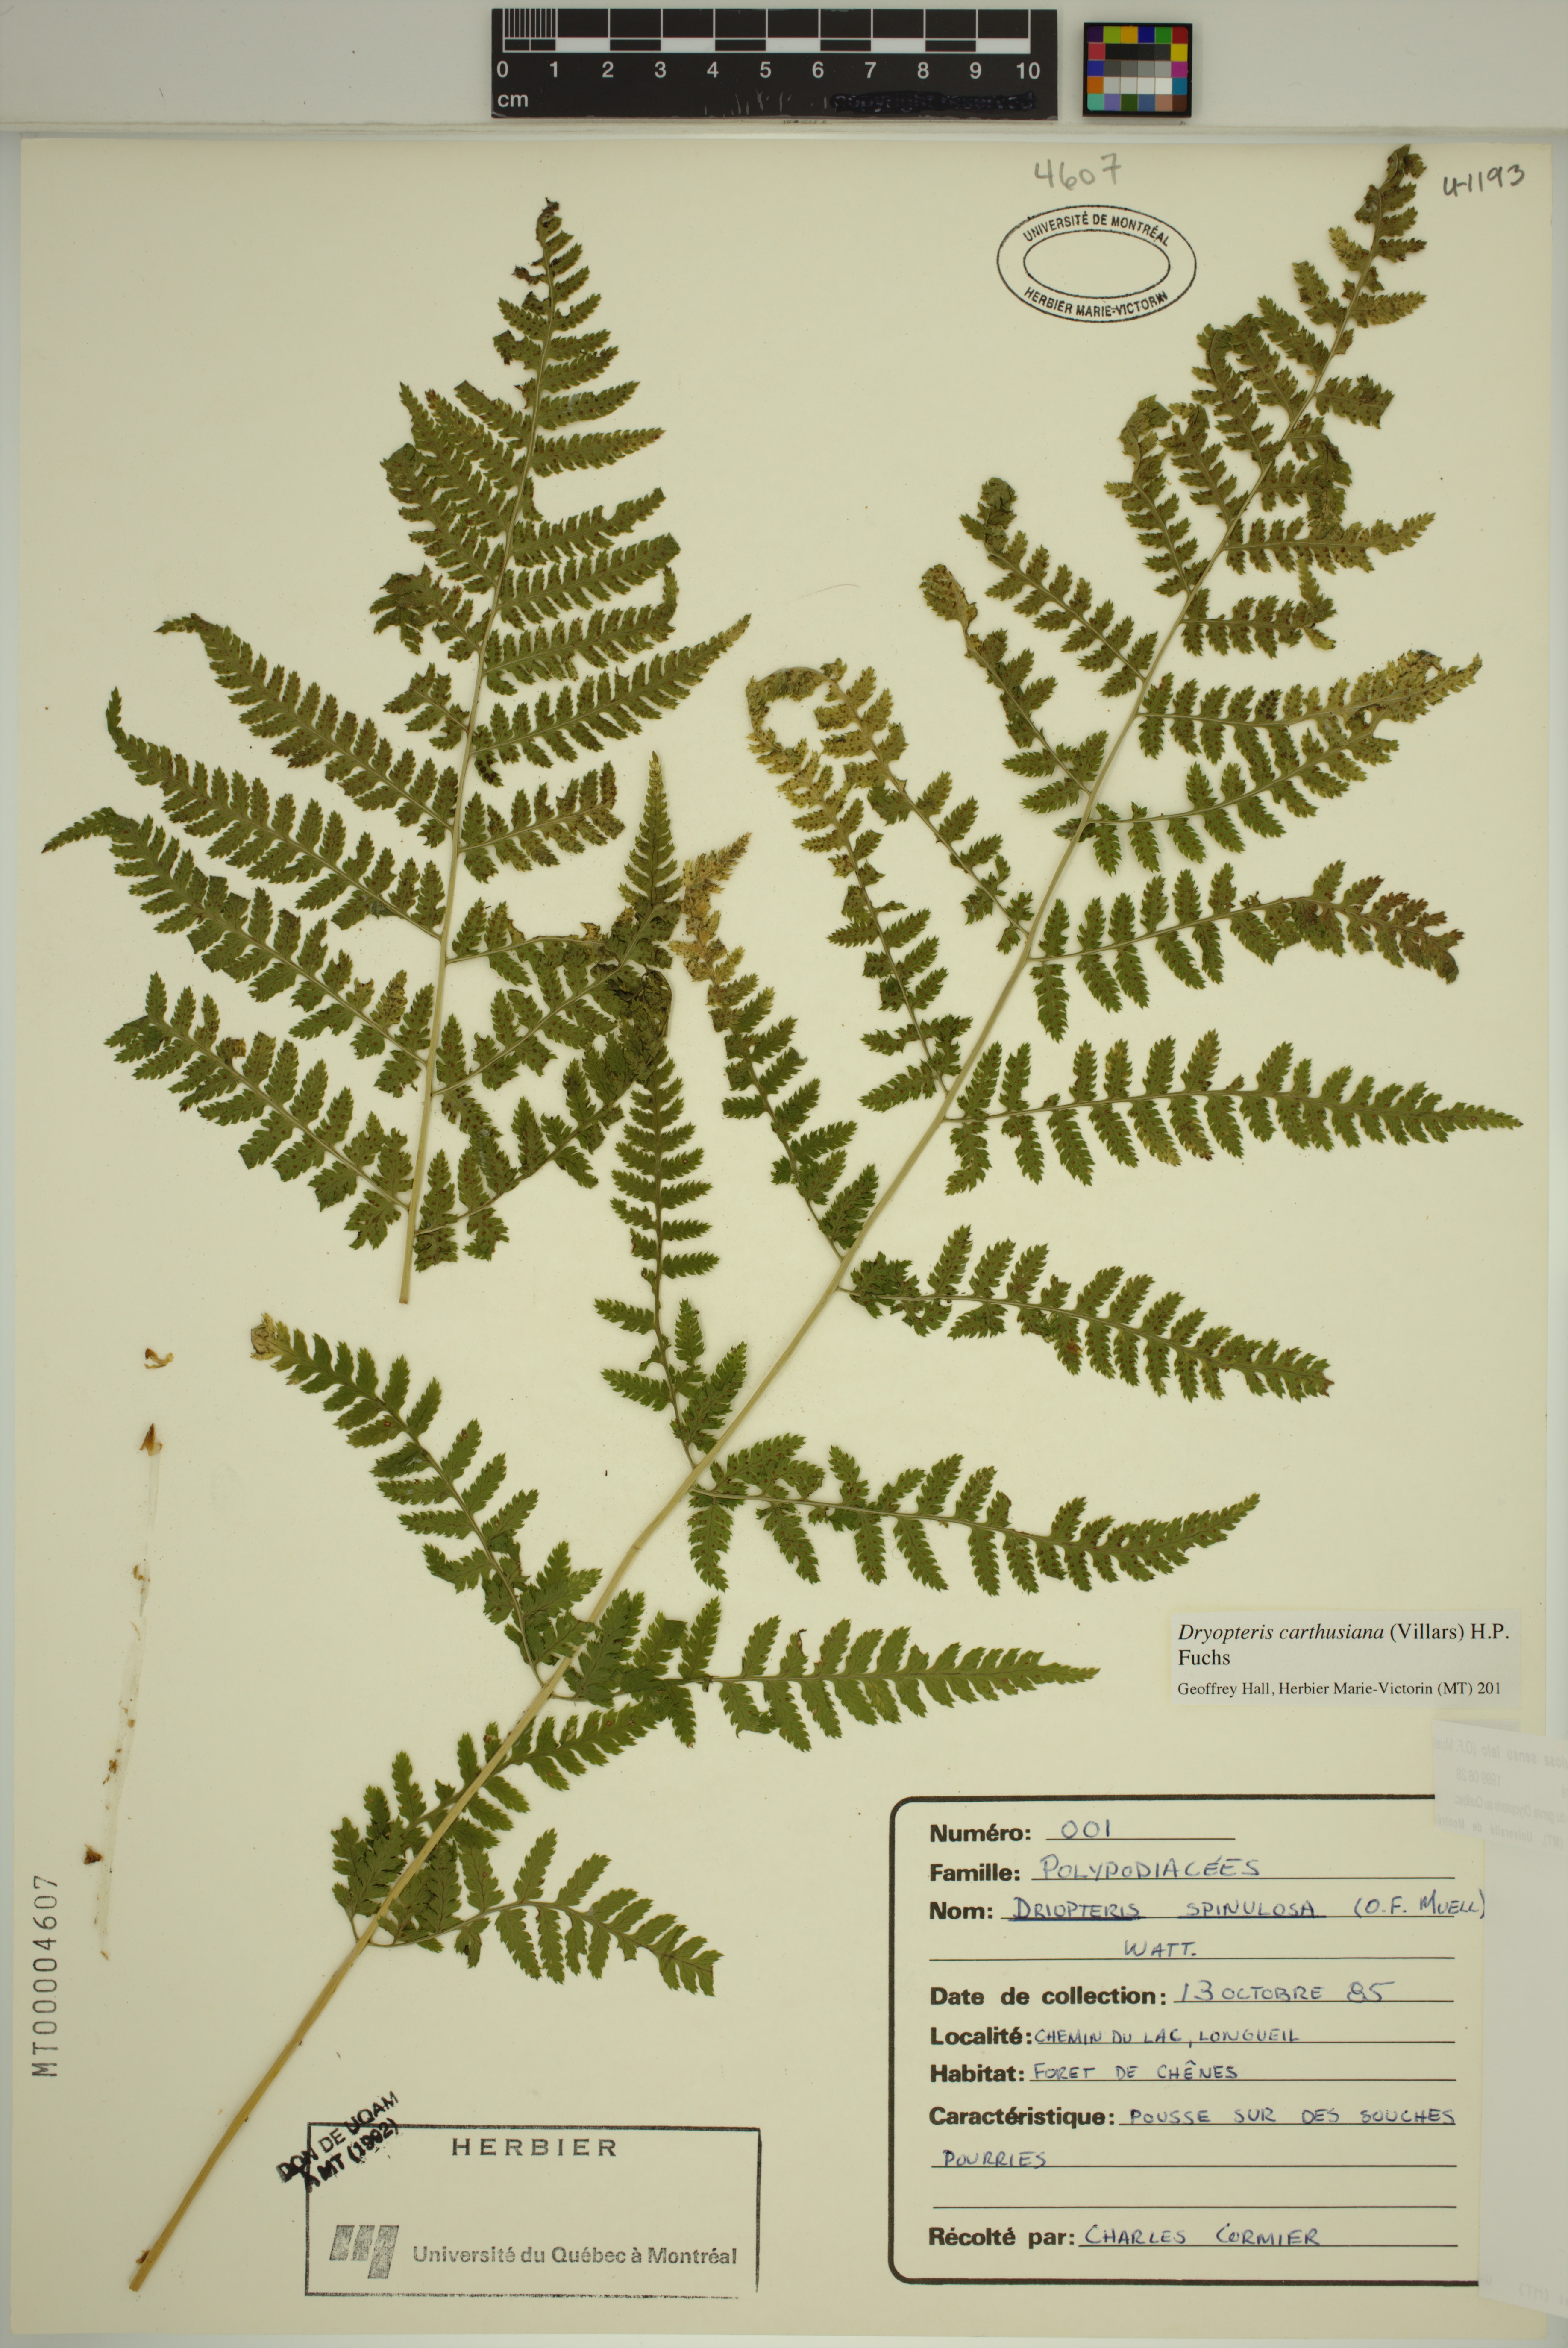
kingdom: Plantae
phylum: Tracheophyta
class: Polypodiopsida
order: Polypodiales
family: Dryopteridaceae
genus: Dryopteris
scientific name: Dryopteris carthusiana
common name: Narrow buckler-fern
